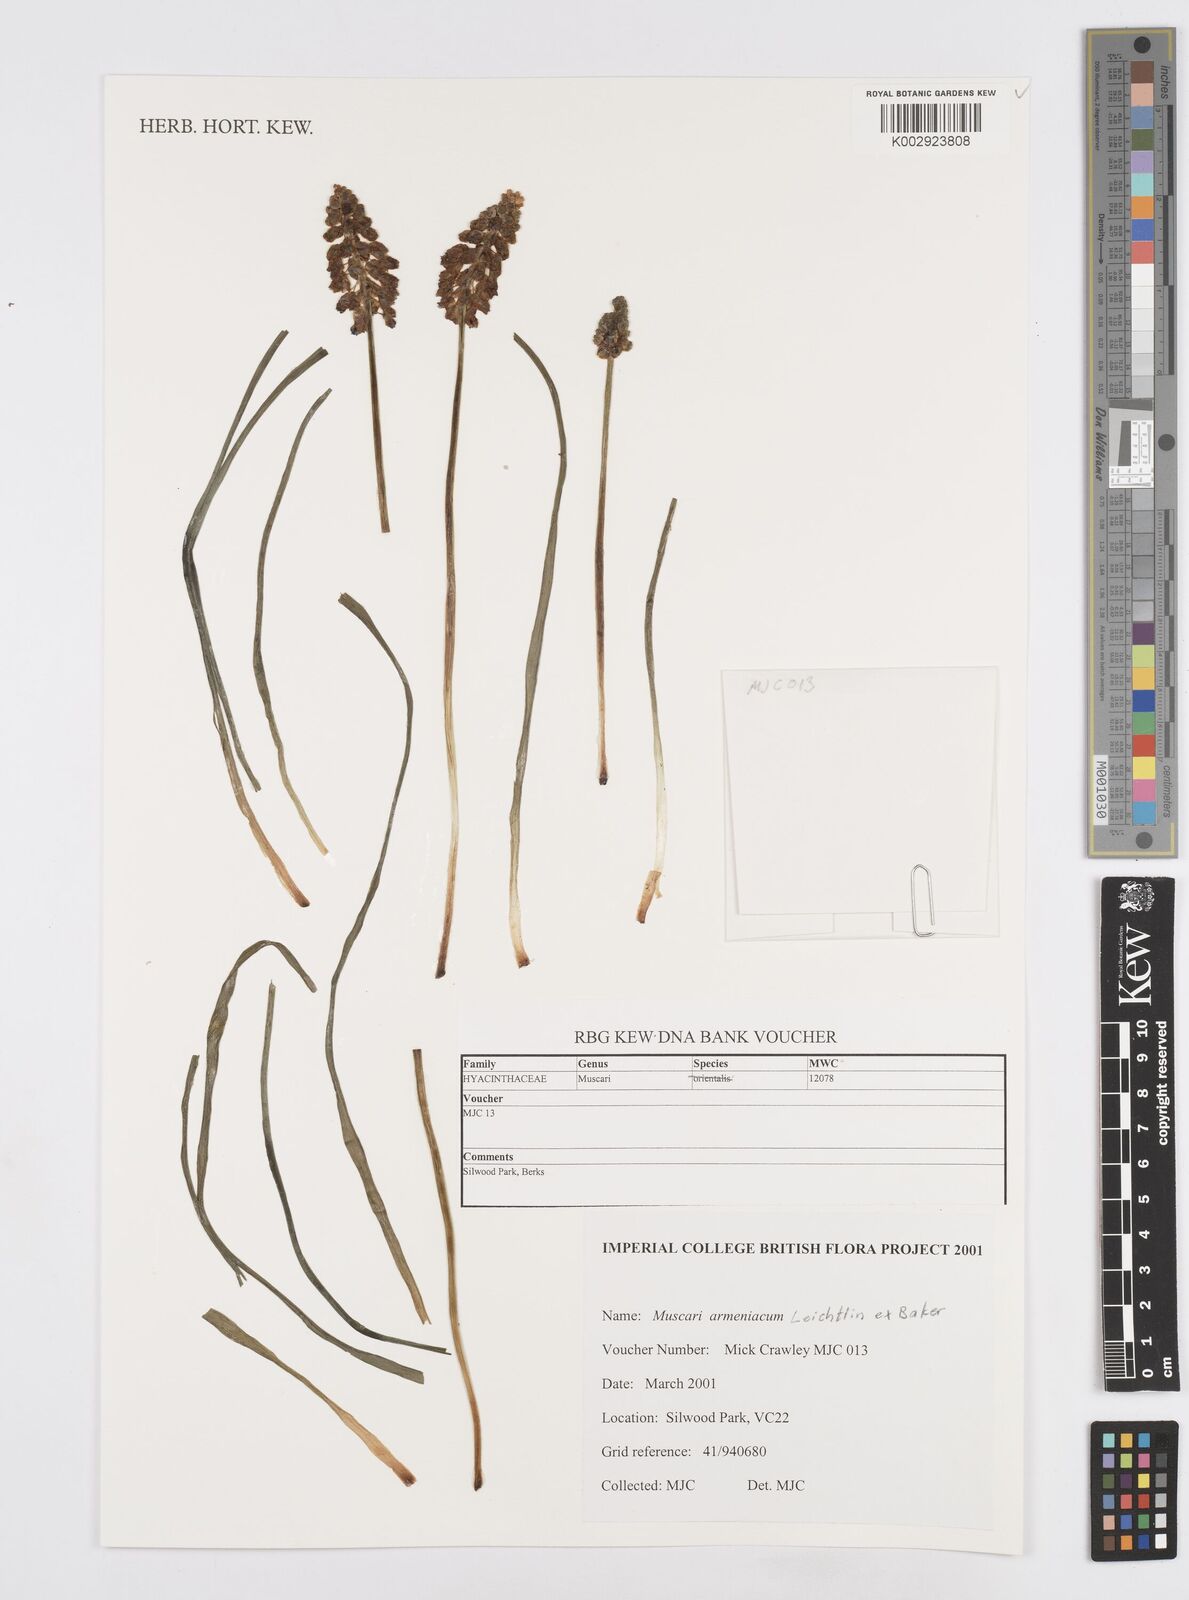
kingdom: Plantae
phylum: Tracheophyta
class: Liliopsida
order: Asparagales
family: Asparagaceae
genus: Muscari
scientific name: Muscari
